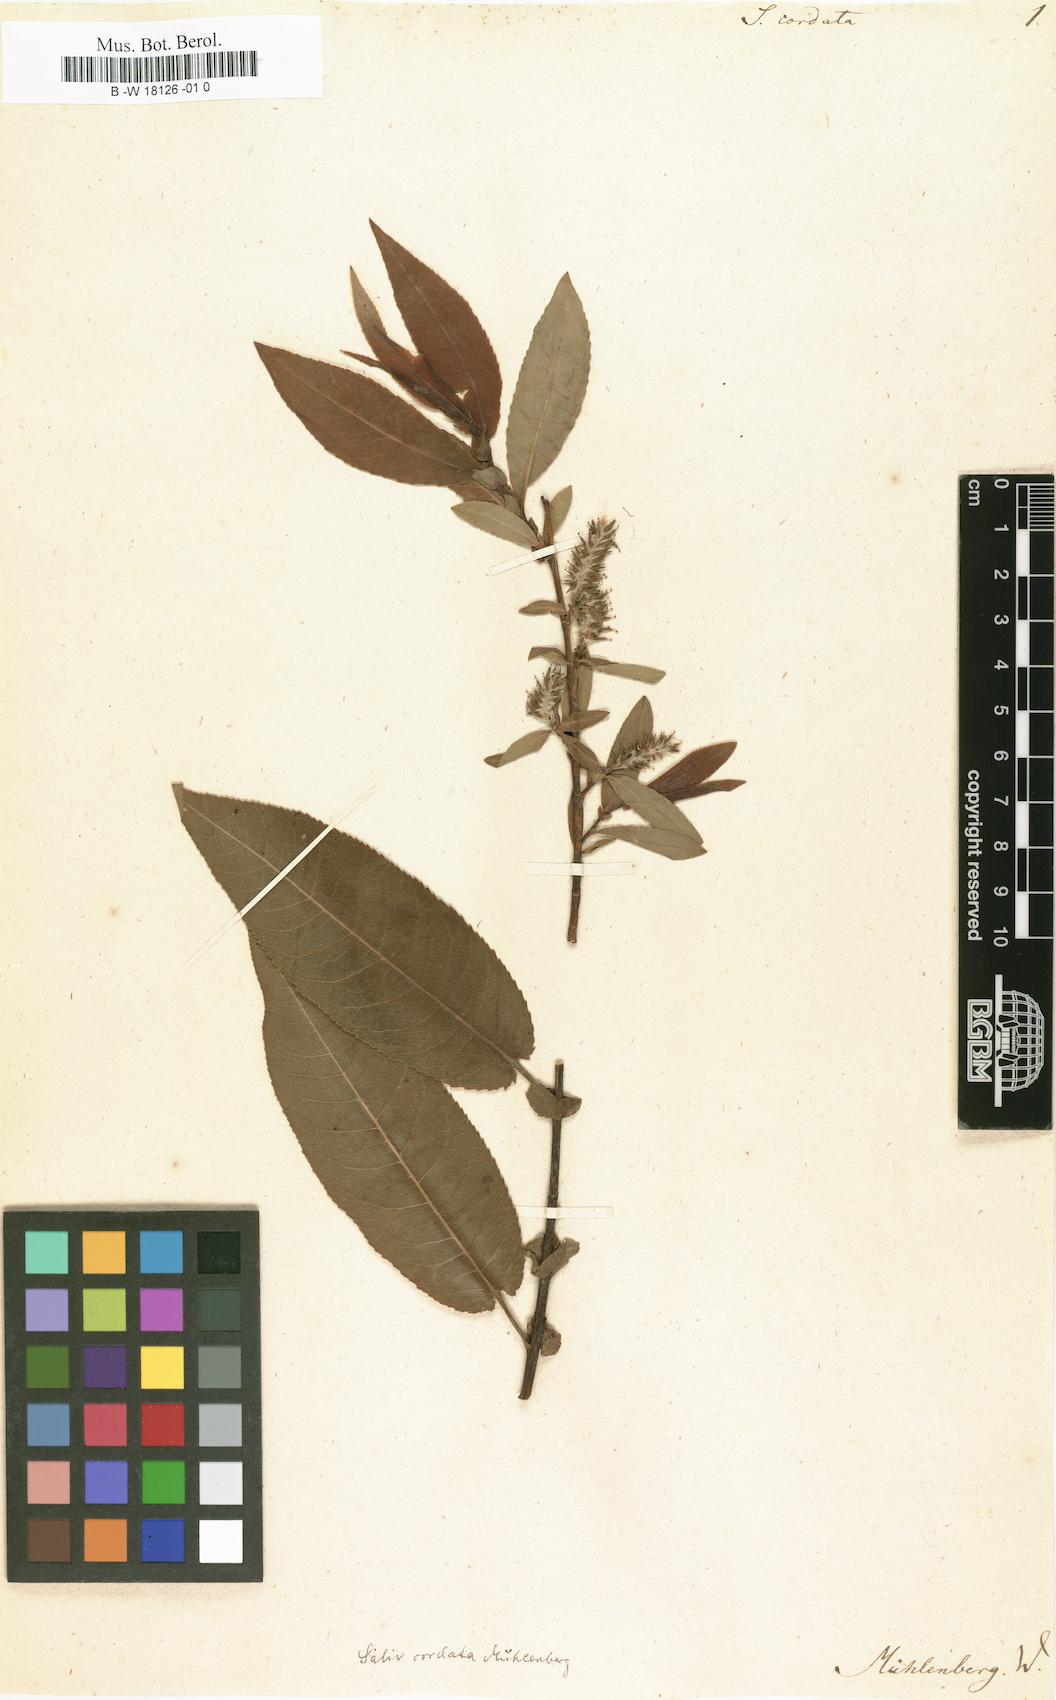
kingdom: Plantae
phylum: Tracheophyta
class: Magnoliopsida
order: Malpighiales
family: Salicaceae
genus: Salix
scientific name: Salix cordata
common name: Heart-leaf willow
